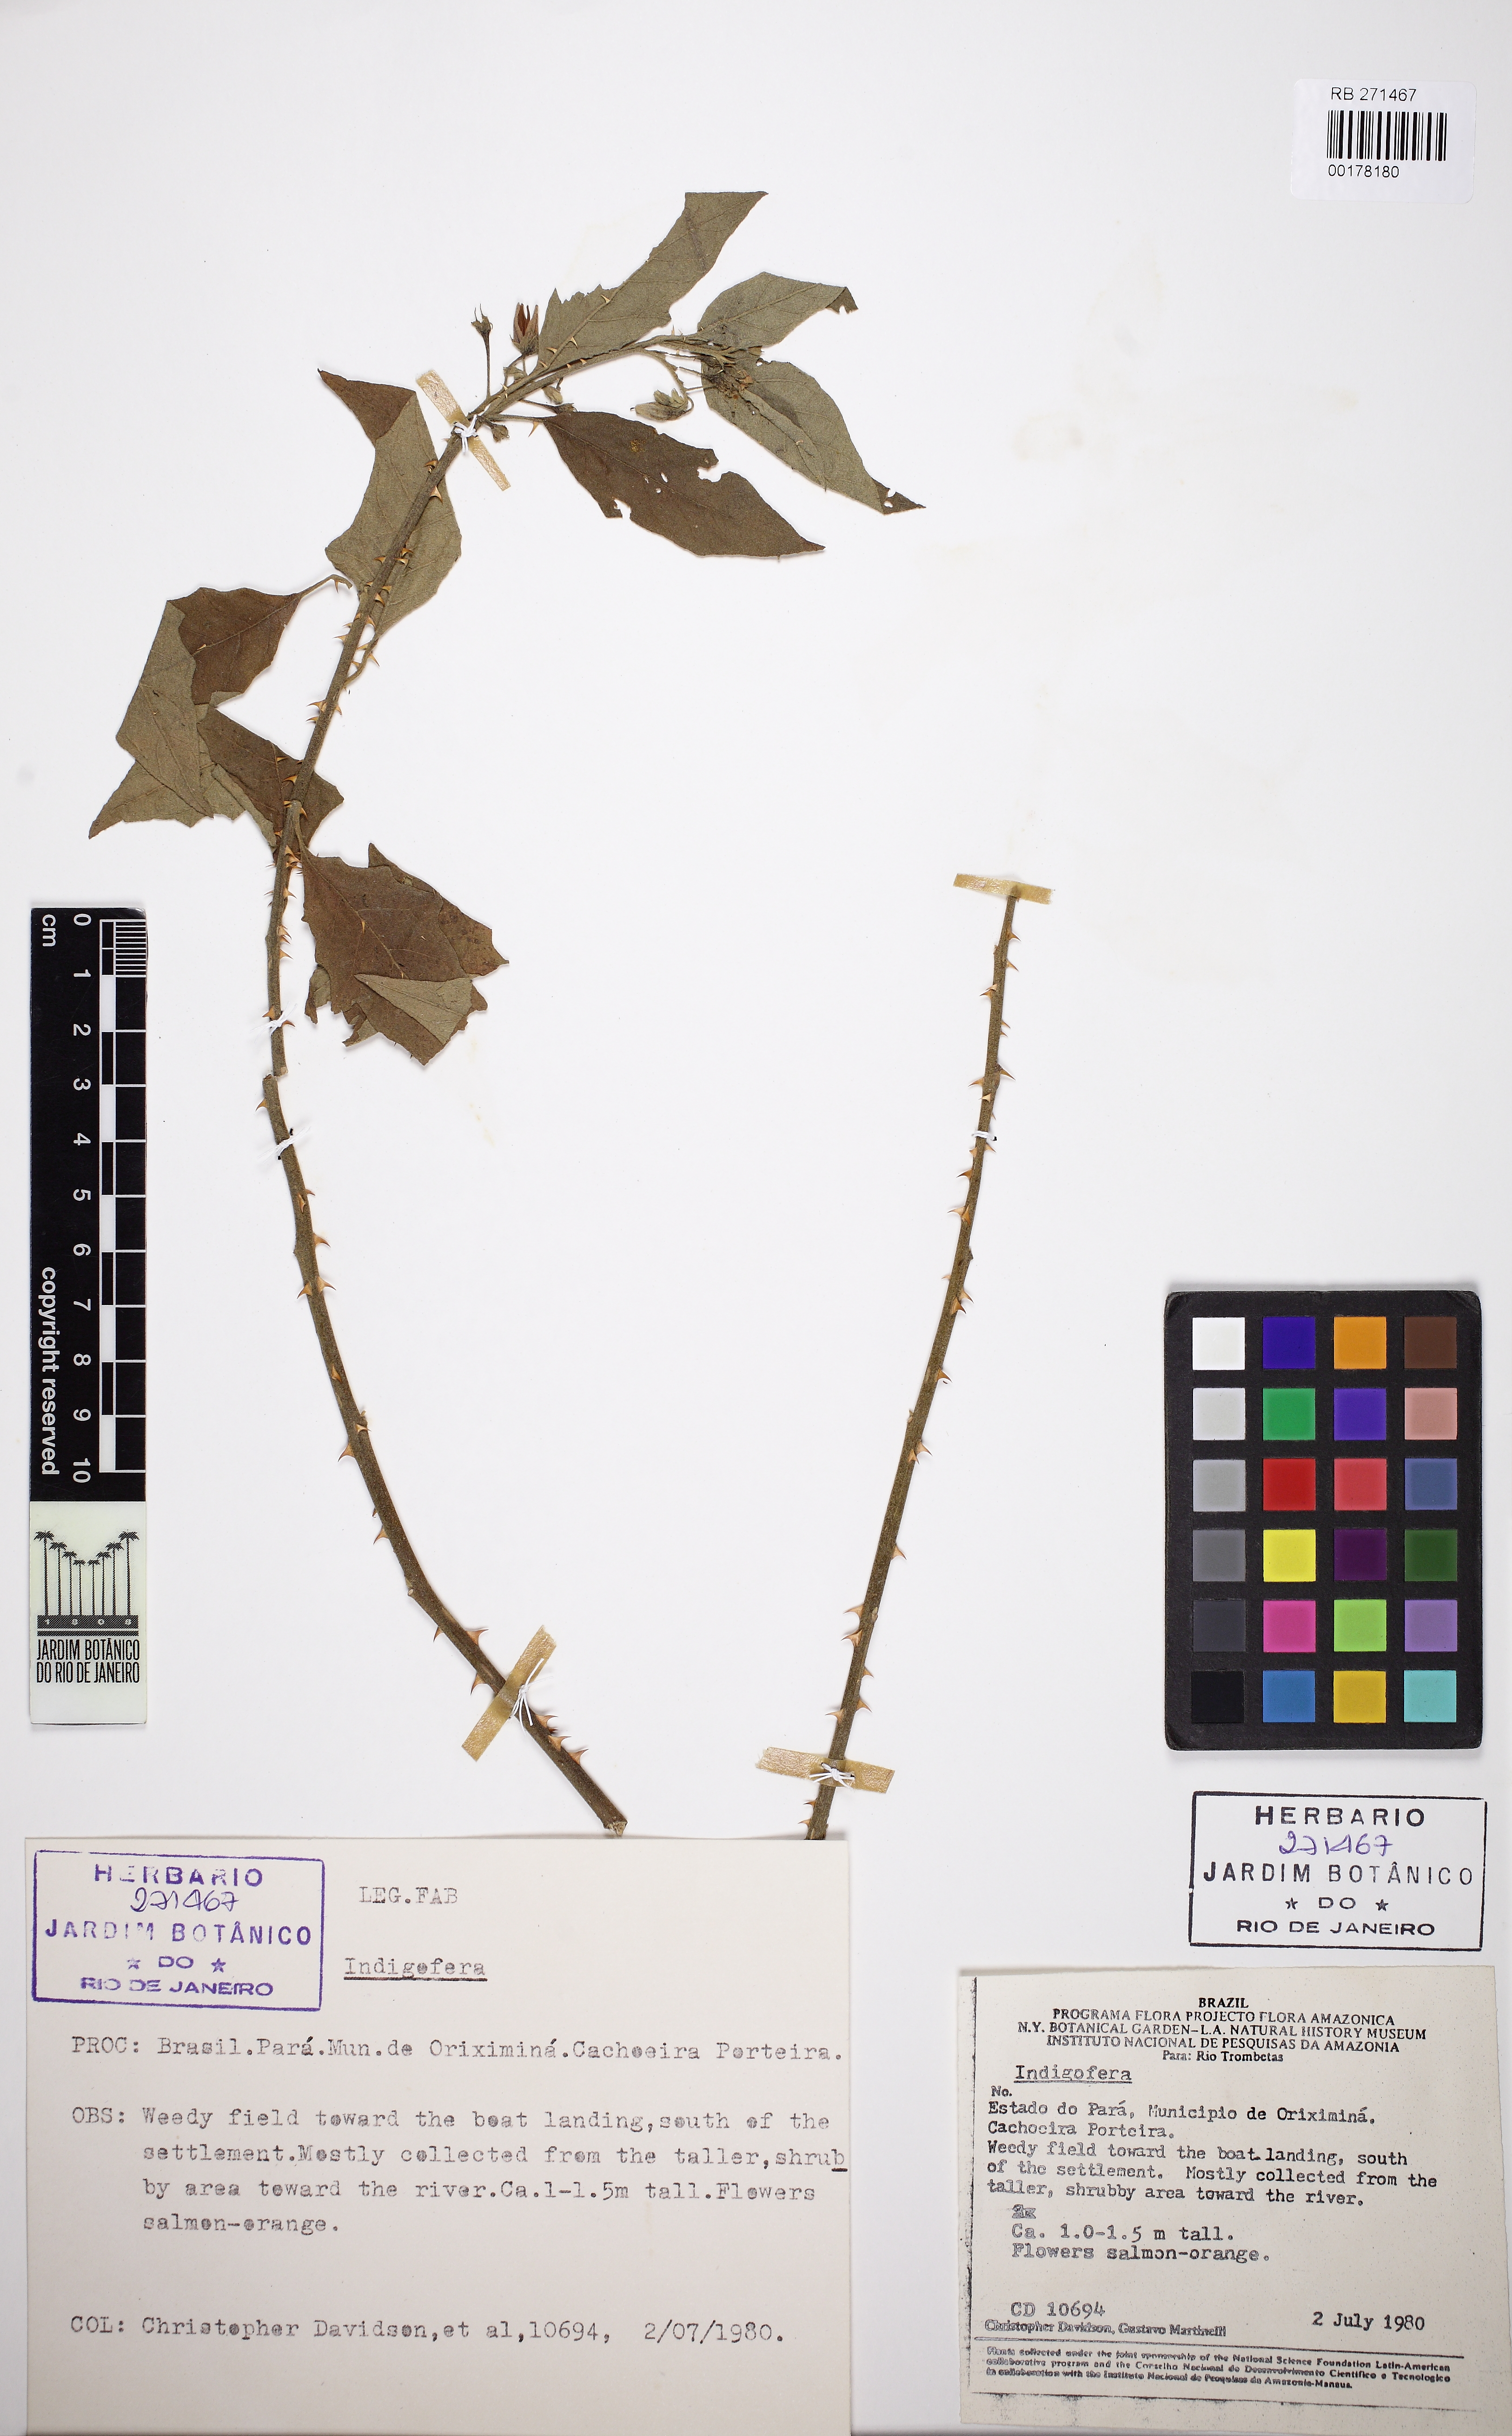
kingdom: Plantae
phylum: Tracheophyta
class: Magnoliopsida
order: Fabales
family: Fabaceae
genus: Indigofera
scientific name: Indigofera
